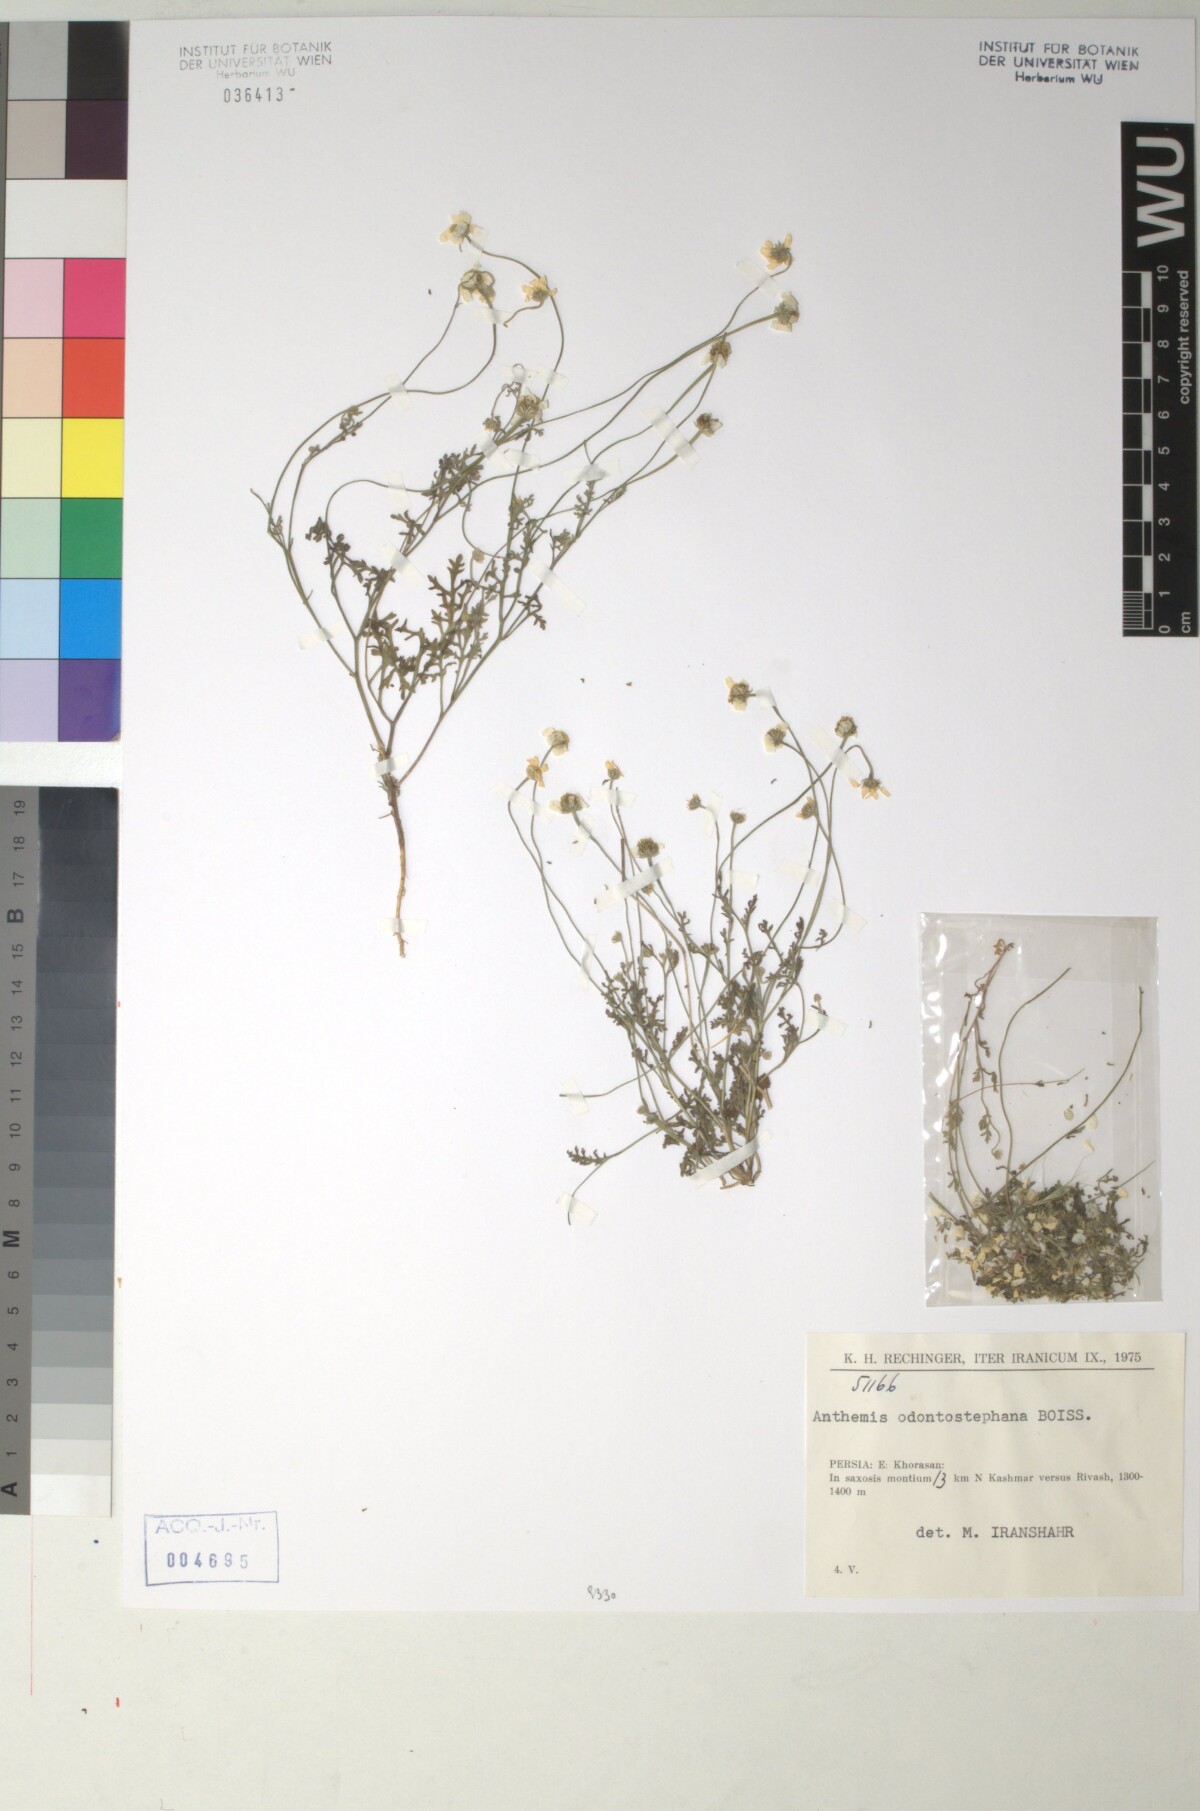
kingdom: Plantae
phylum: Tracheophyta
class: Magnoliopsida
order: Asterales
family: Asteraceae
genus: Anthemis
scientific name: Anthemis odontostephana
